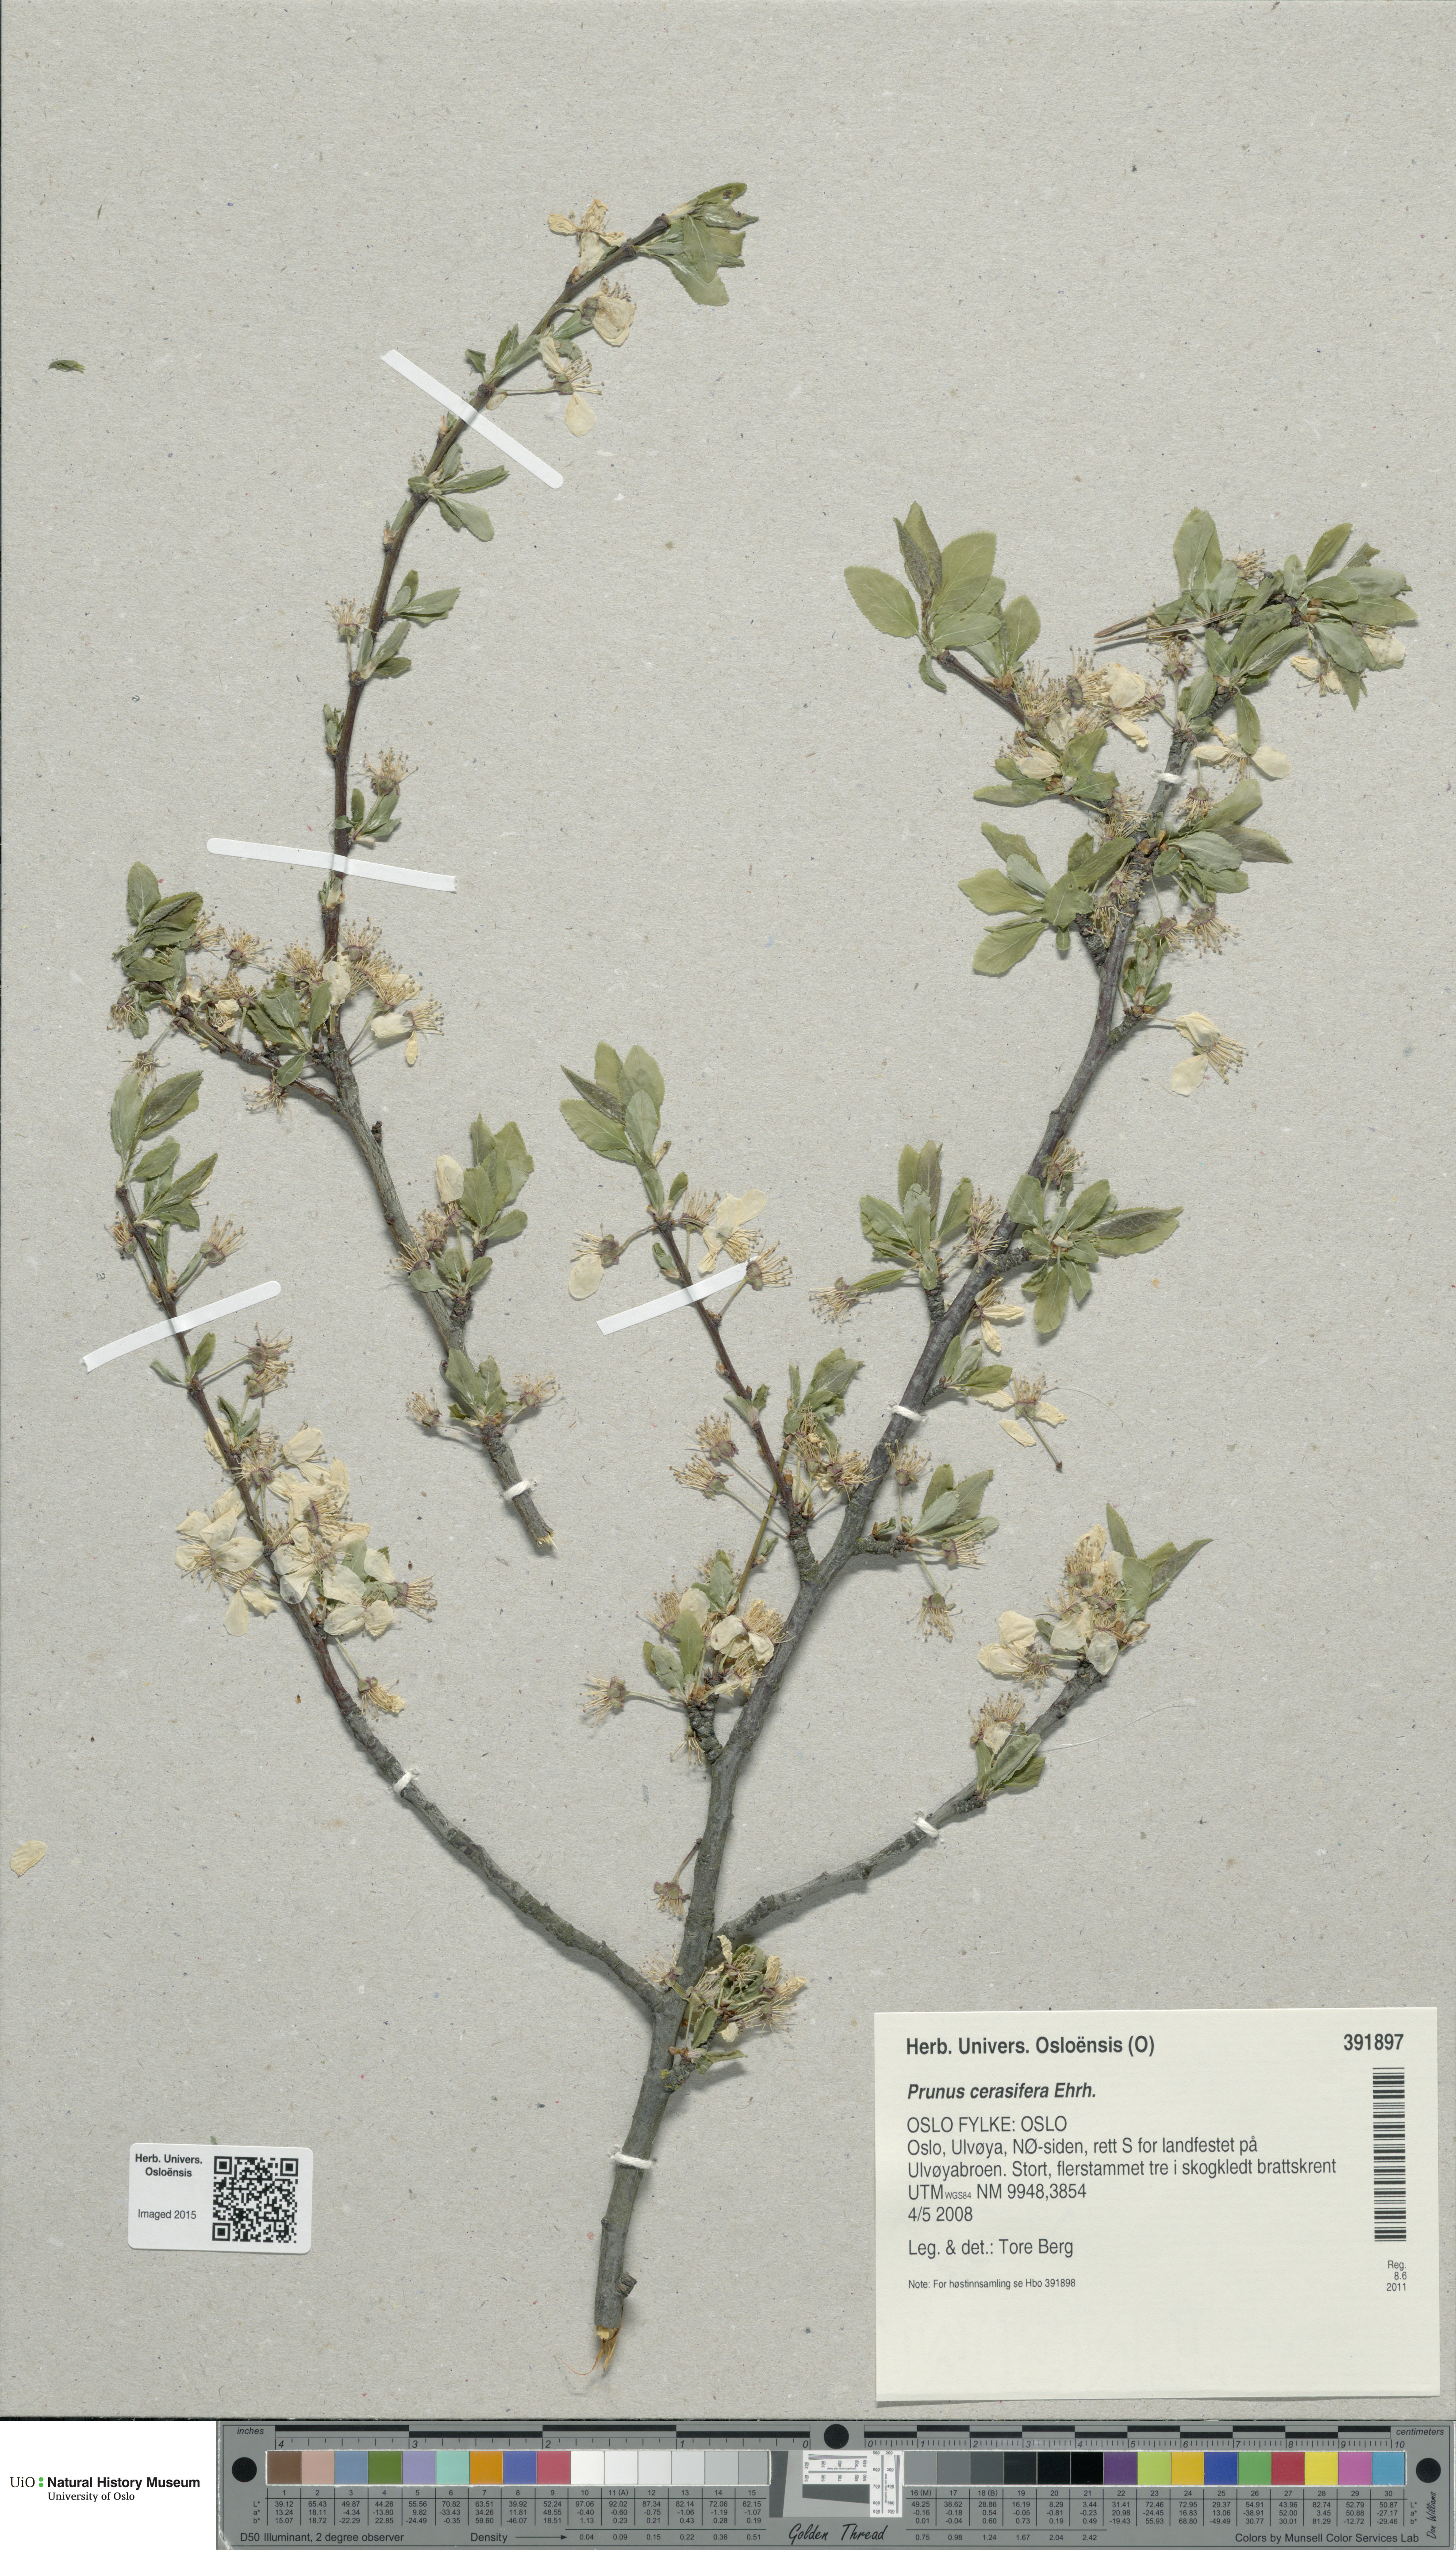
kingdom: Plantae
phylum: Tracheophyta
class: Magnoliopsida
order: Rosales
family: Rosaceae
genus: Prunus
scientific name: Prunus cerasifera
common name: Cherry plum
